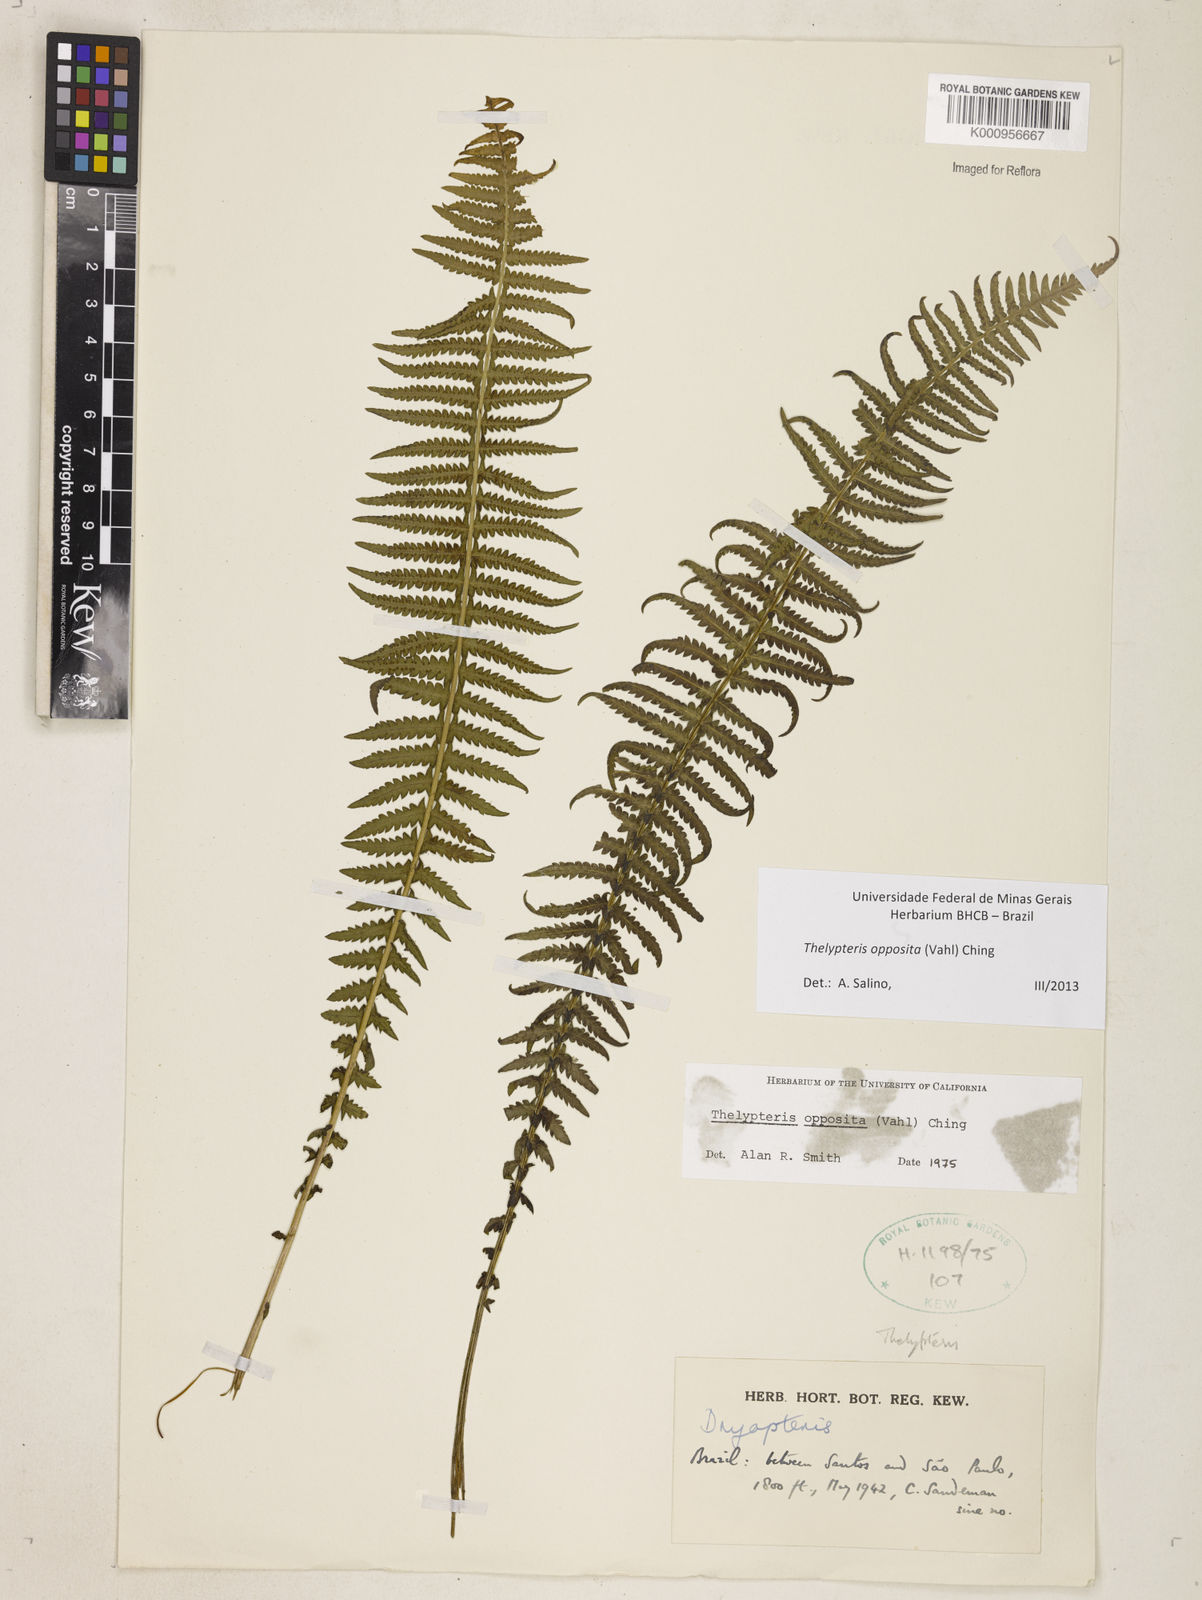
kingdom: Plantae
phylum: Tracheophyta
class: Polypodiopsida
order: Polypodiales
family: Thelypteridaceae
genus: Amauropelta
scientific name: Amauropelta opposita
